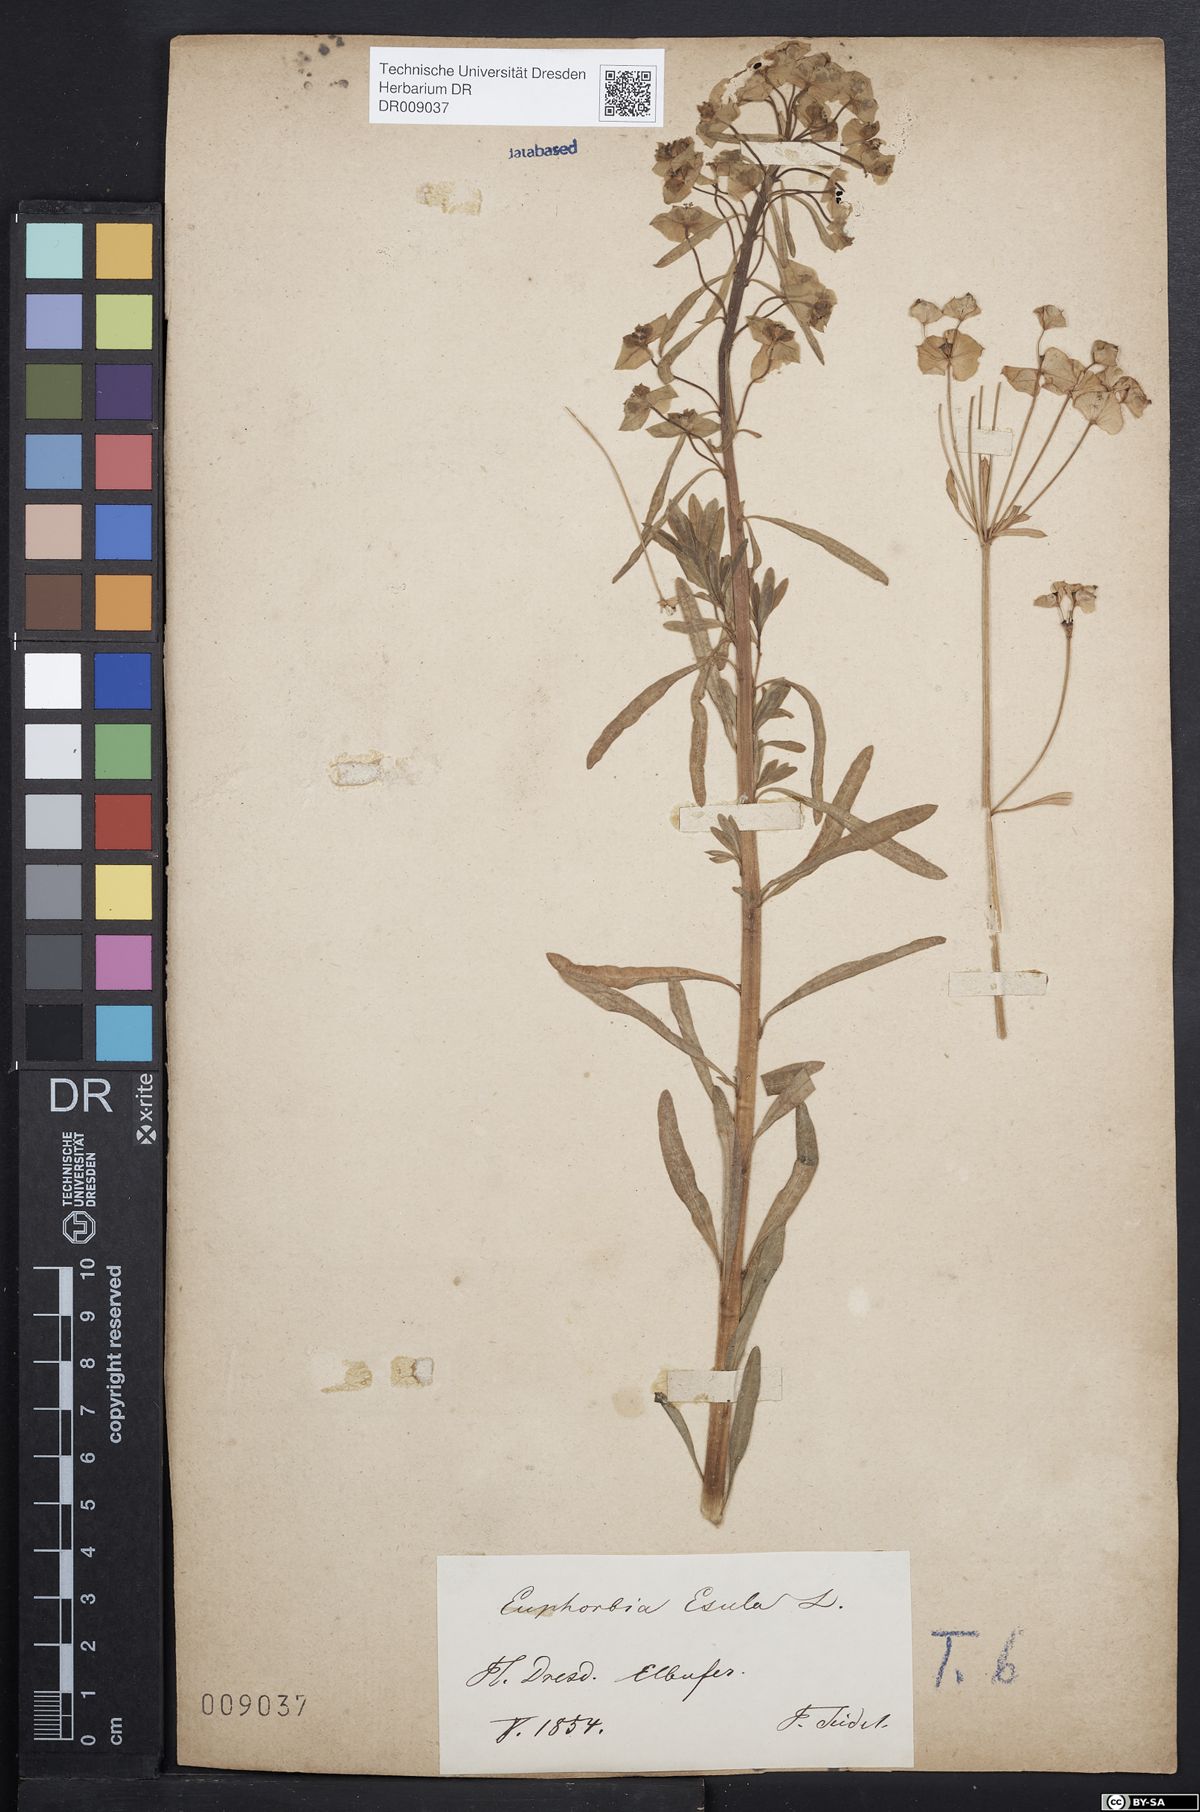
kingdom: Plantae
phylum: Tracheophyta
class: Magnoliopsida
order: Malpighiales
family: Euphorbiaceae
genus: Euphorbia
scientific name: Euphorbia esula
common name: Leafy spurge
